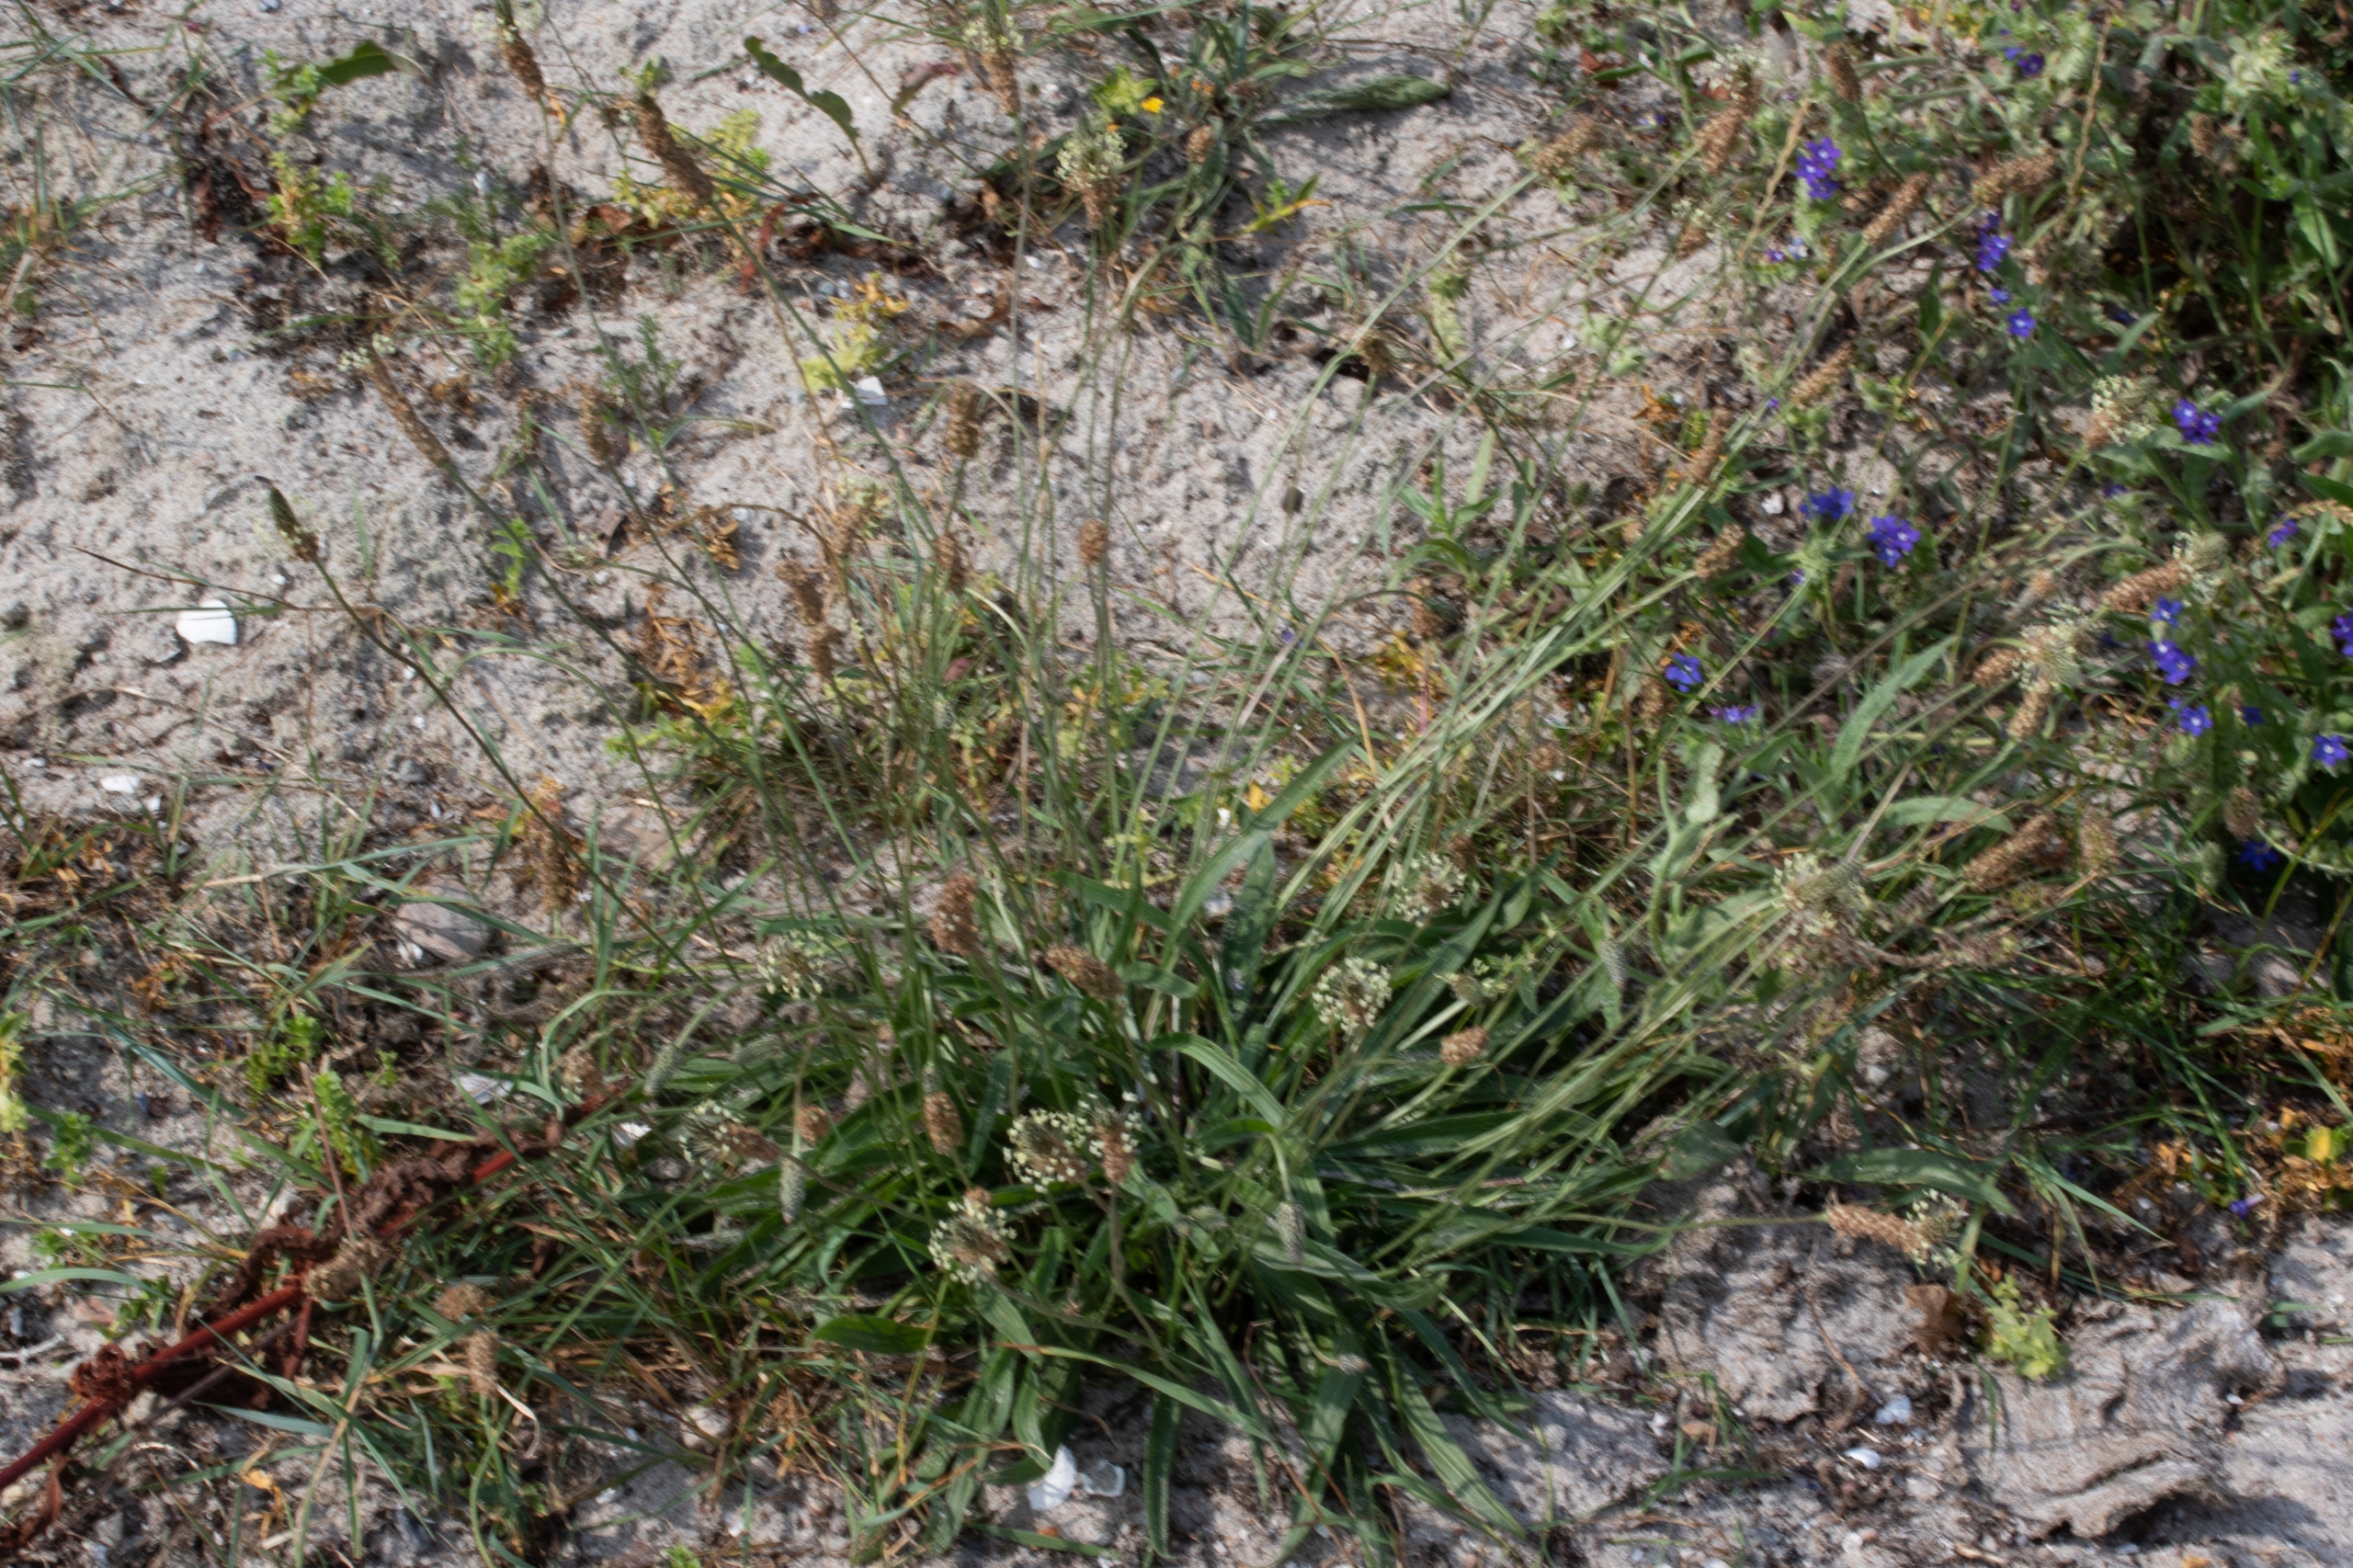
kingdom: Plantae
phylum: Tracheophyta
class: Magnoliopsida
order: Lamiales
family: Plantaginaceae
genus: Plantago
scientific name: Plantago lanceolata
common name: Lancet-vejbred
